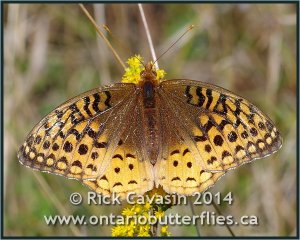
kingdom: Animalia
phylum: Arthropoda
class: Insecta
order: Lepidoptera
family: Nymphalidae
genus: Speyeria
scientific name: Speyeria cybele
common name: Great Spangled Fritillary
